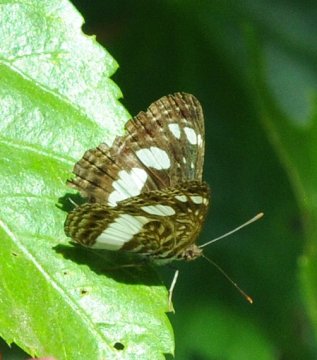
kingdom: Animalia
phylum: Arthropoda
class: Insecta
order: Lepidoptera
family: Nymphalidae
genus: Neptis
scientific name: Neptis saclava
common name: Spotted Sailer
